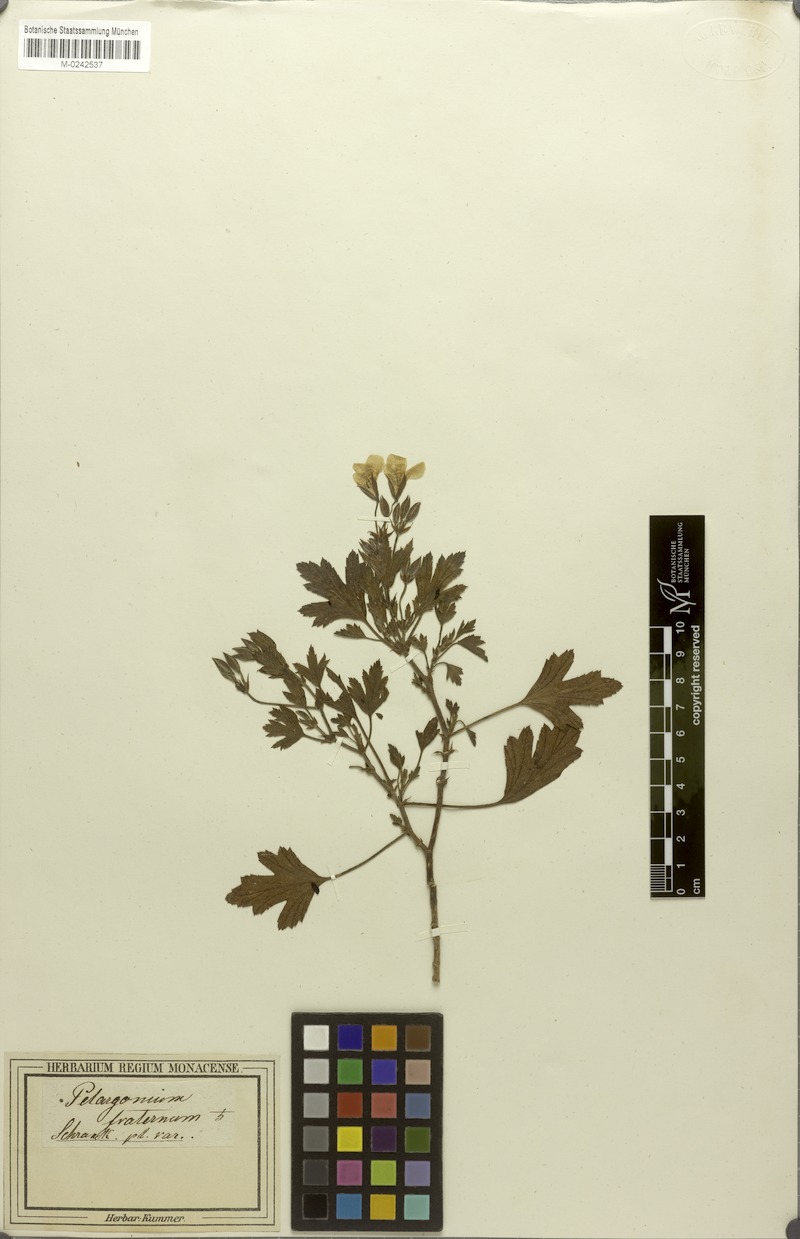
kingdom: Plantae
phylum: Tracheophyta
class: Magnoliopsida
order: Geraniales
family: Geraniaceae
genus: Pelargonium
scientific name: Pelargonium fraternum
